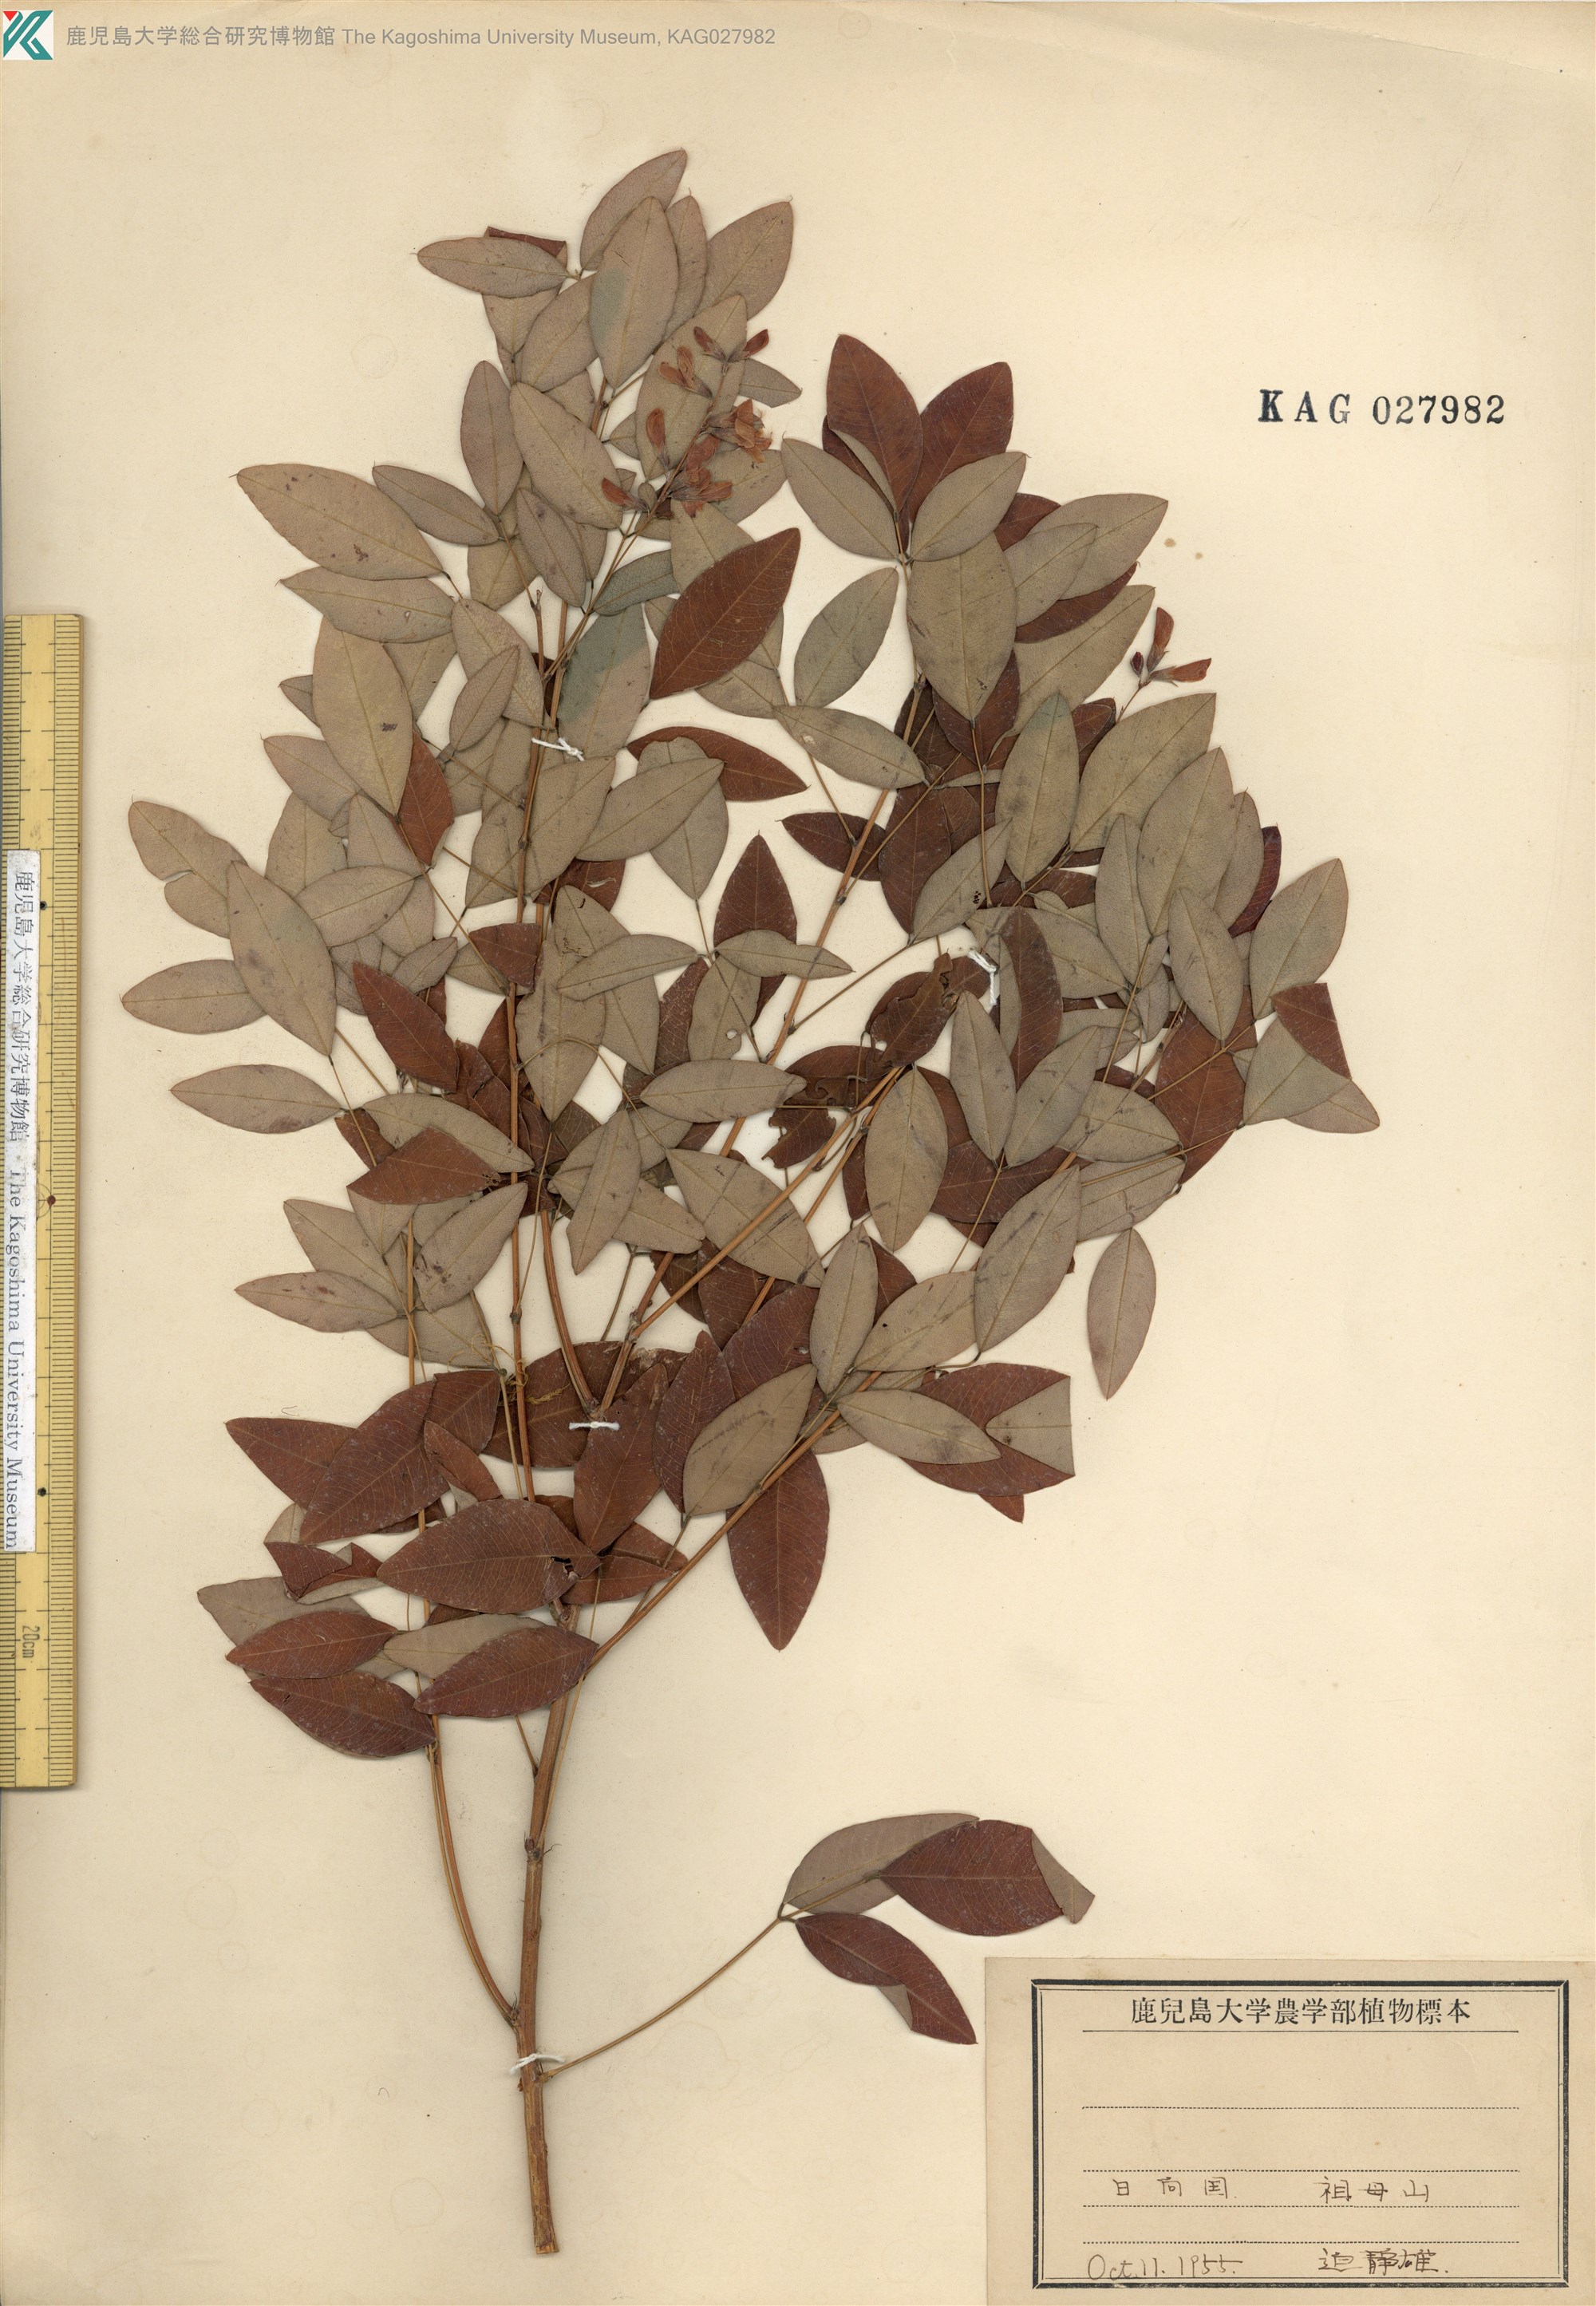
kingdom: Plantae
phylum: Tracheophyta
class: Magnoliopsida
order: Fabales
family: Fabaceae
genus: Lespedeza
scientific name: Lespedeza bicolor
